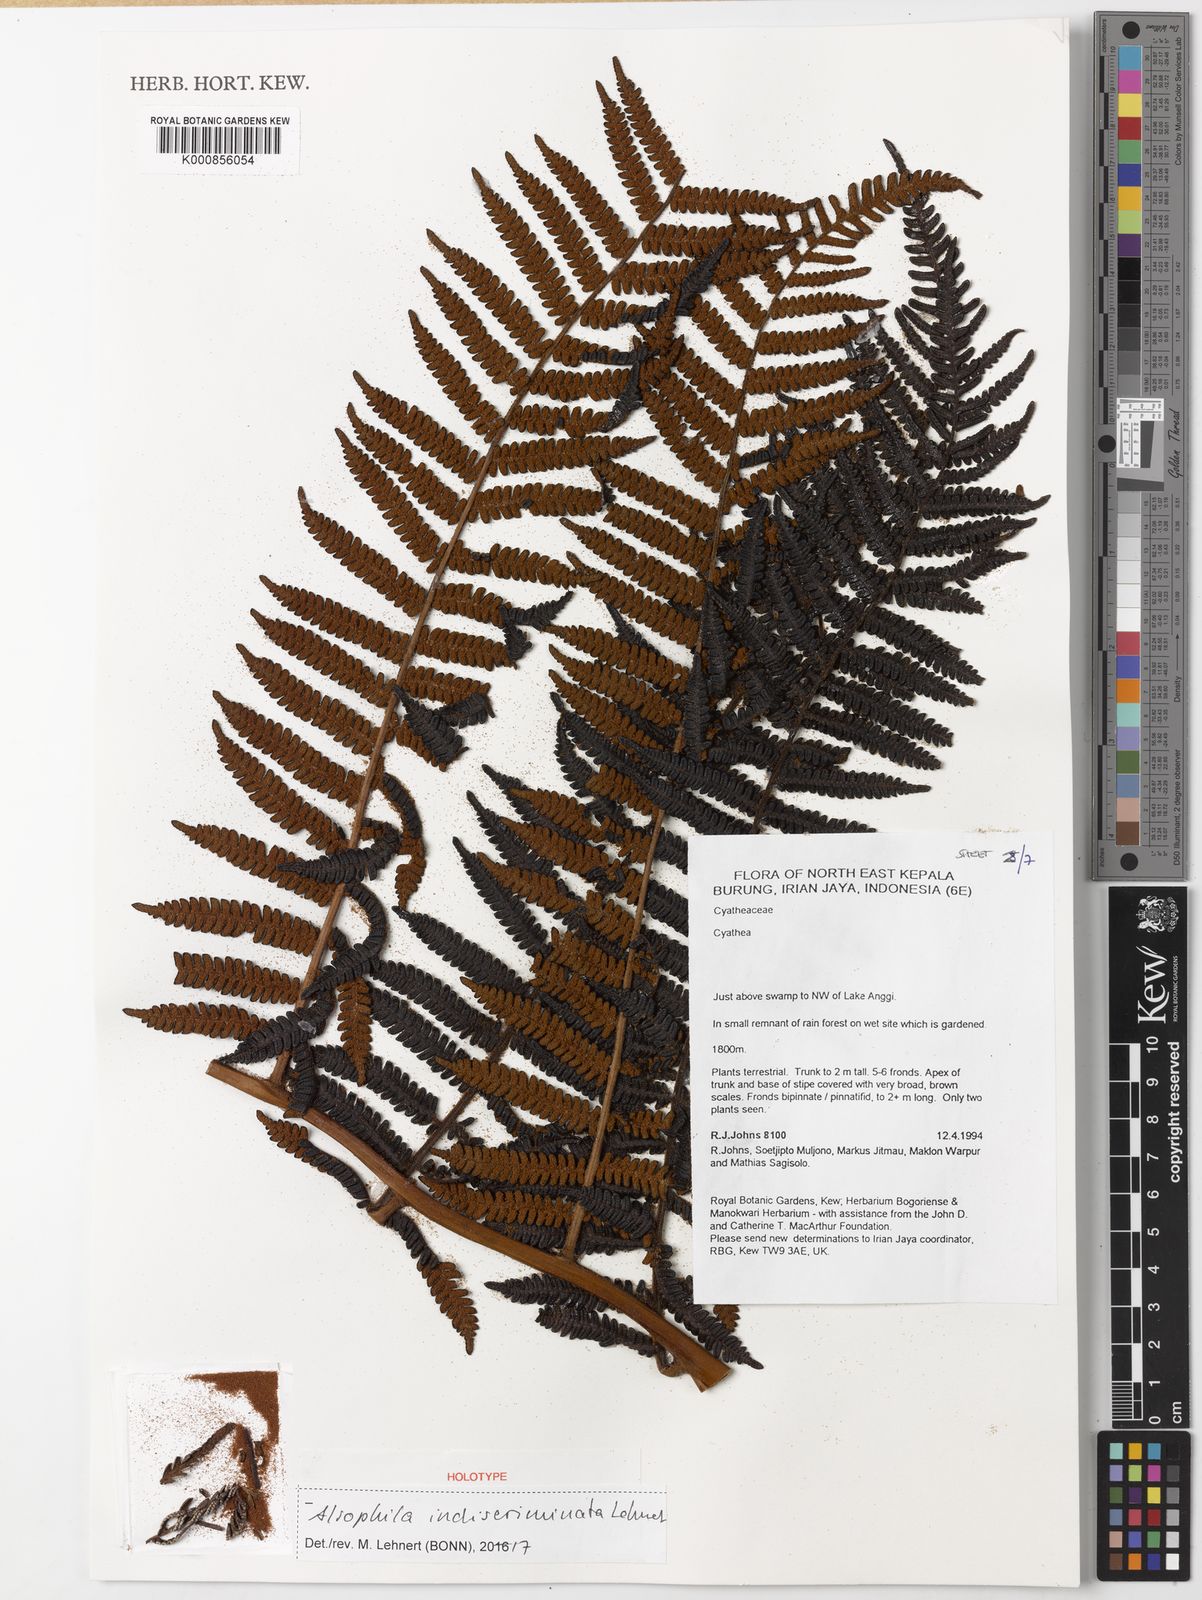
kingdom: Plantae
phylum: Tracheophyta
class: Polypodiopsida
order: Cyatheales
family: Cyatheaceae
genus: Alsophila
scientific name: Alsophila indiscriminata
